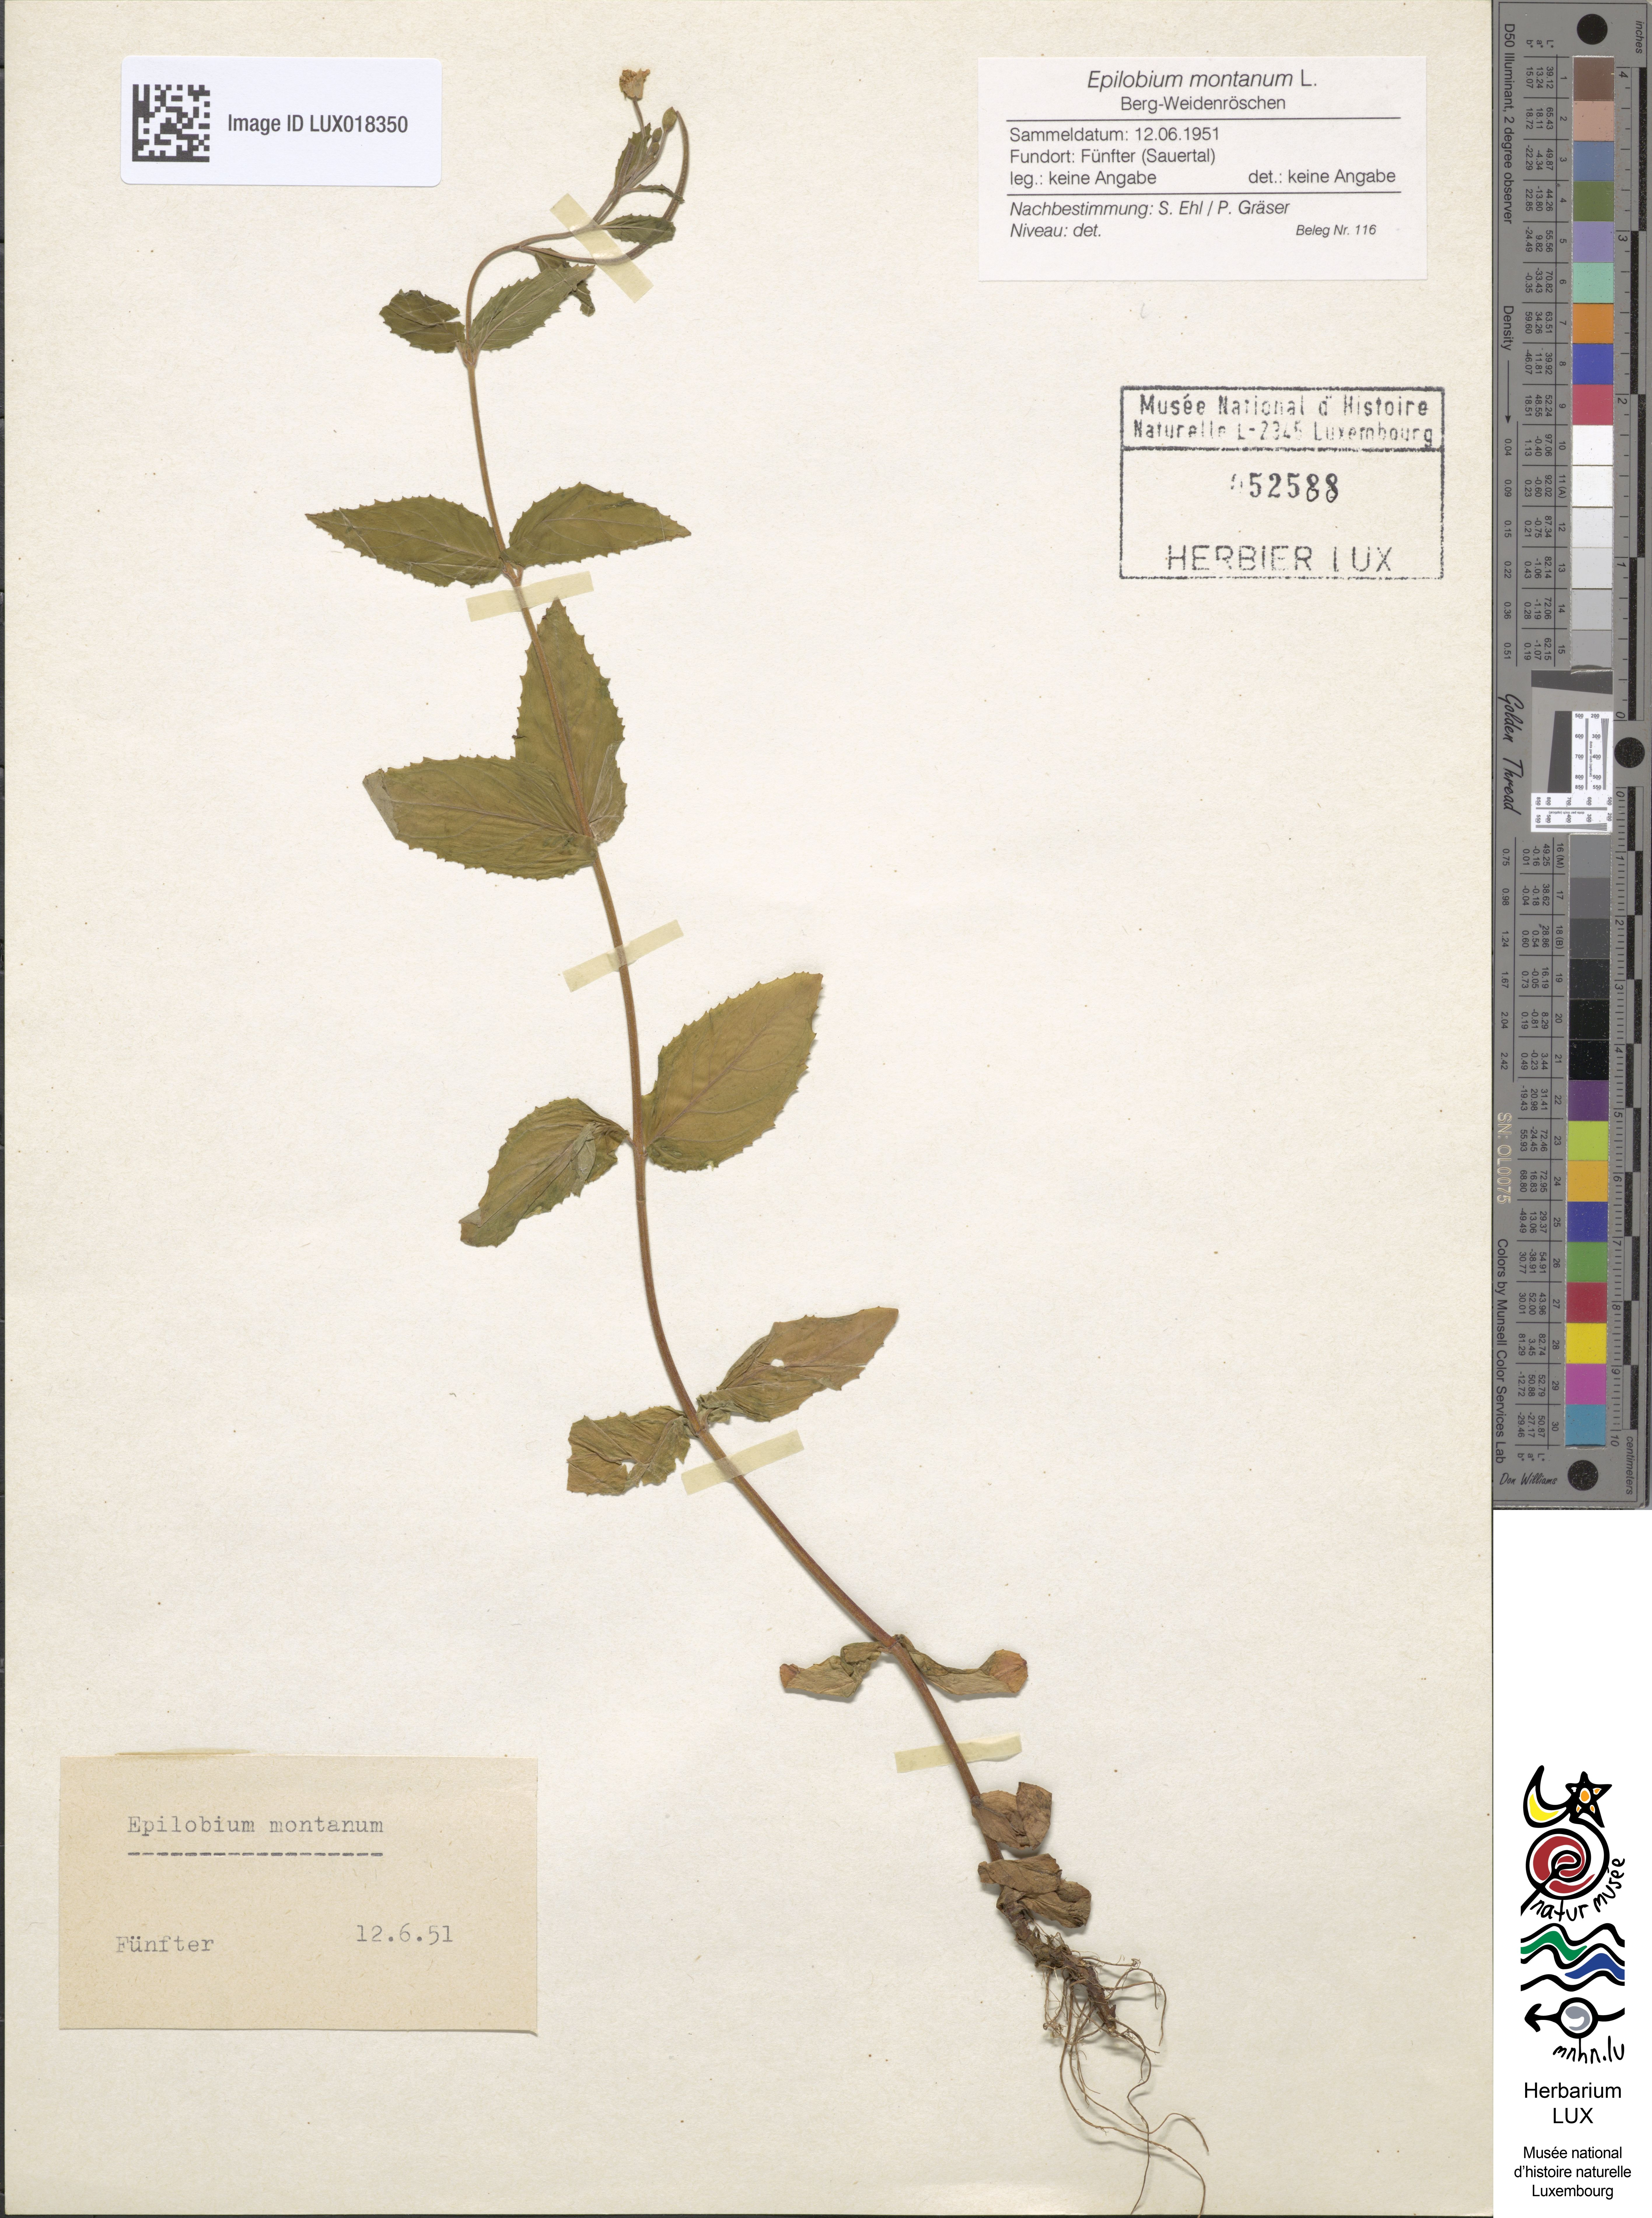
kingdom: Plantae
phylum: Tracheophyta
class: Magnoliopsida
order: Myrtales
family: Onagraceae
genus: Epilobium
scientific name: Epilobium montanum
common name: Broad-leaved willowherb
